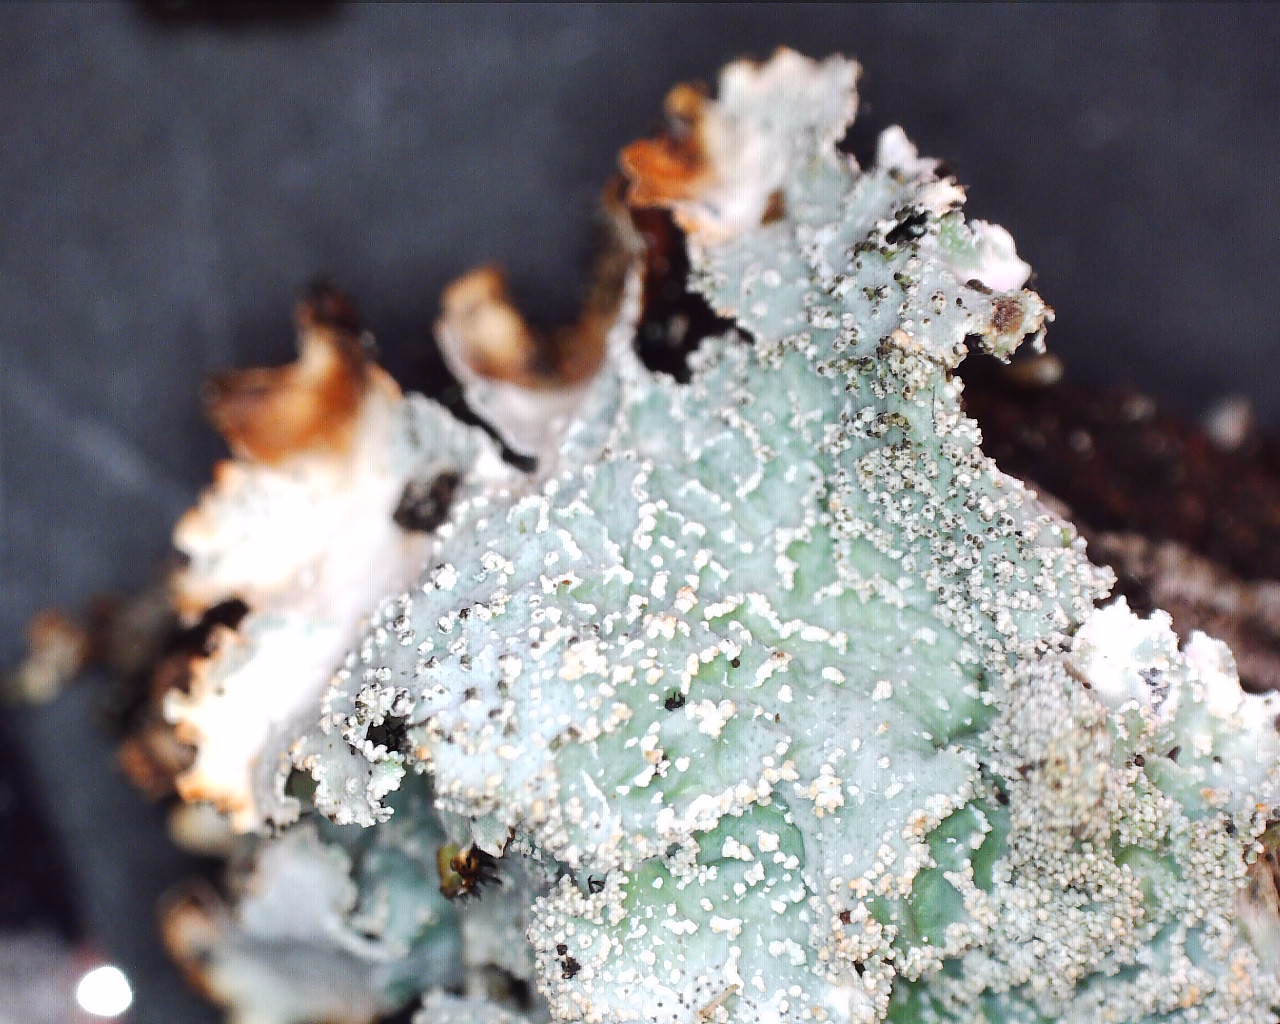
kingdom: Fungi
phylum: Ascomycota
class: Lecanoromycetes
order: Lecanorales
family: Parmeliaceae
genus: Parmelia
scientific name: Parmelia
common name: farve-skållav
